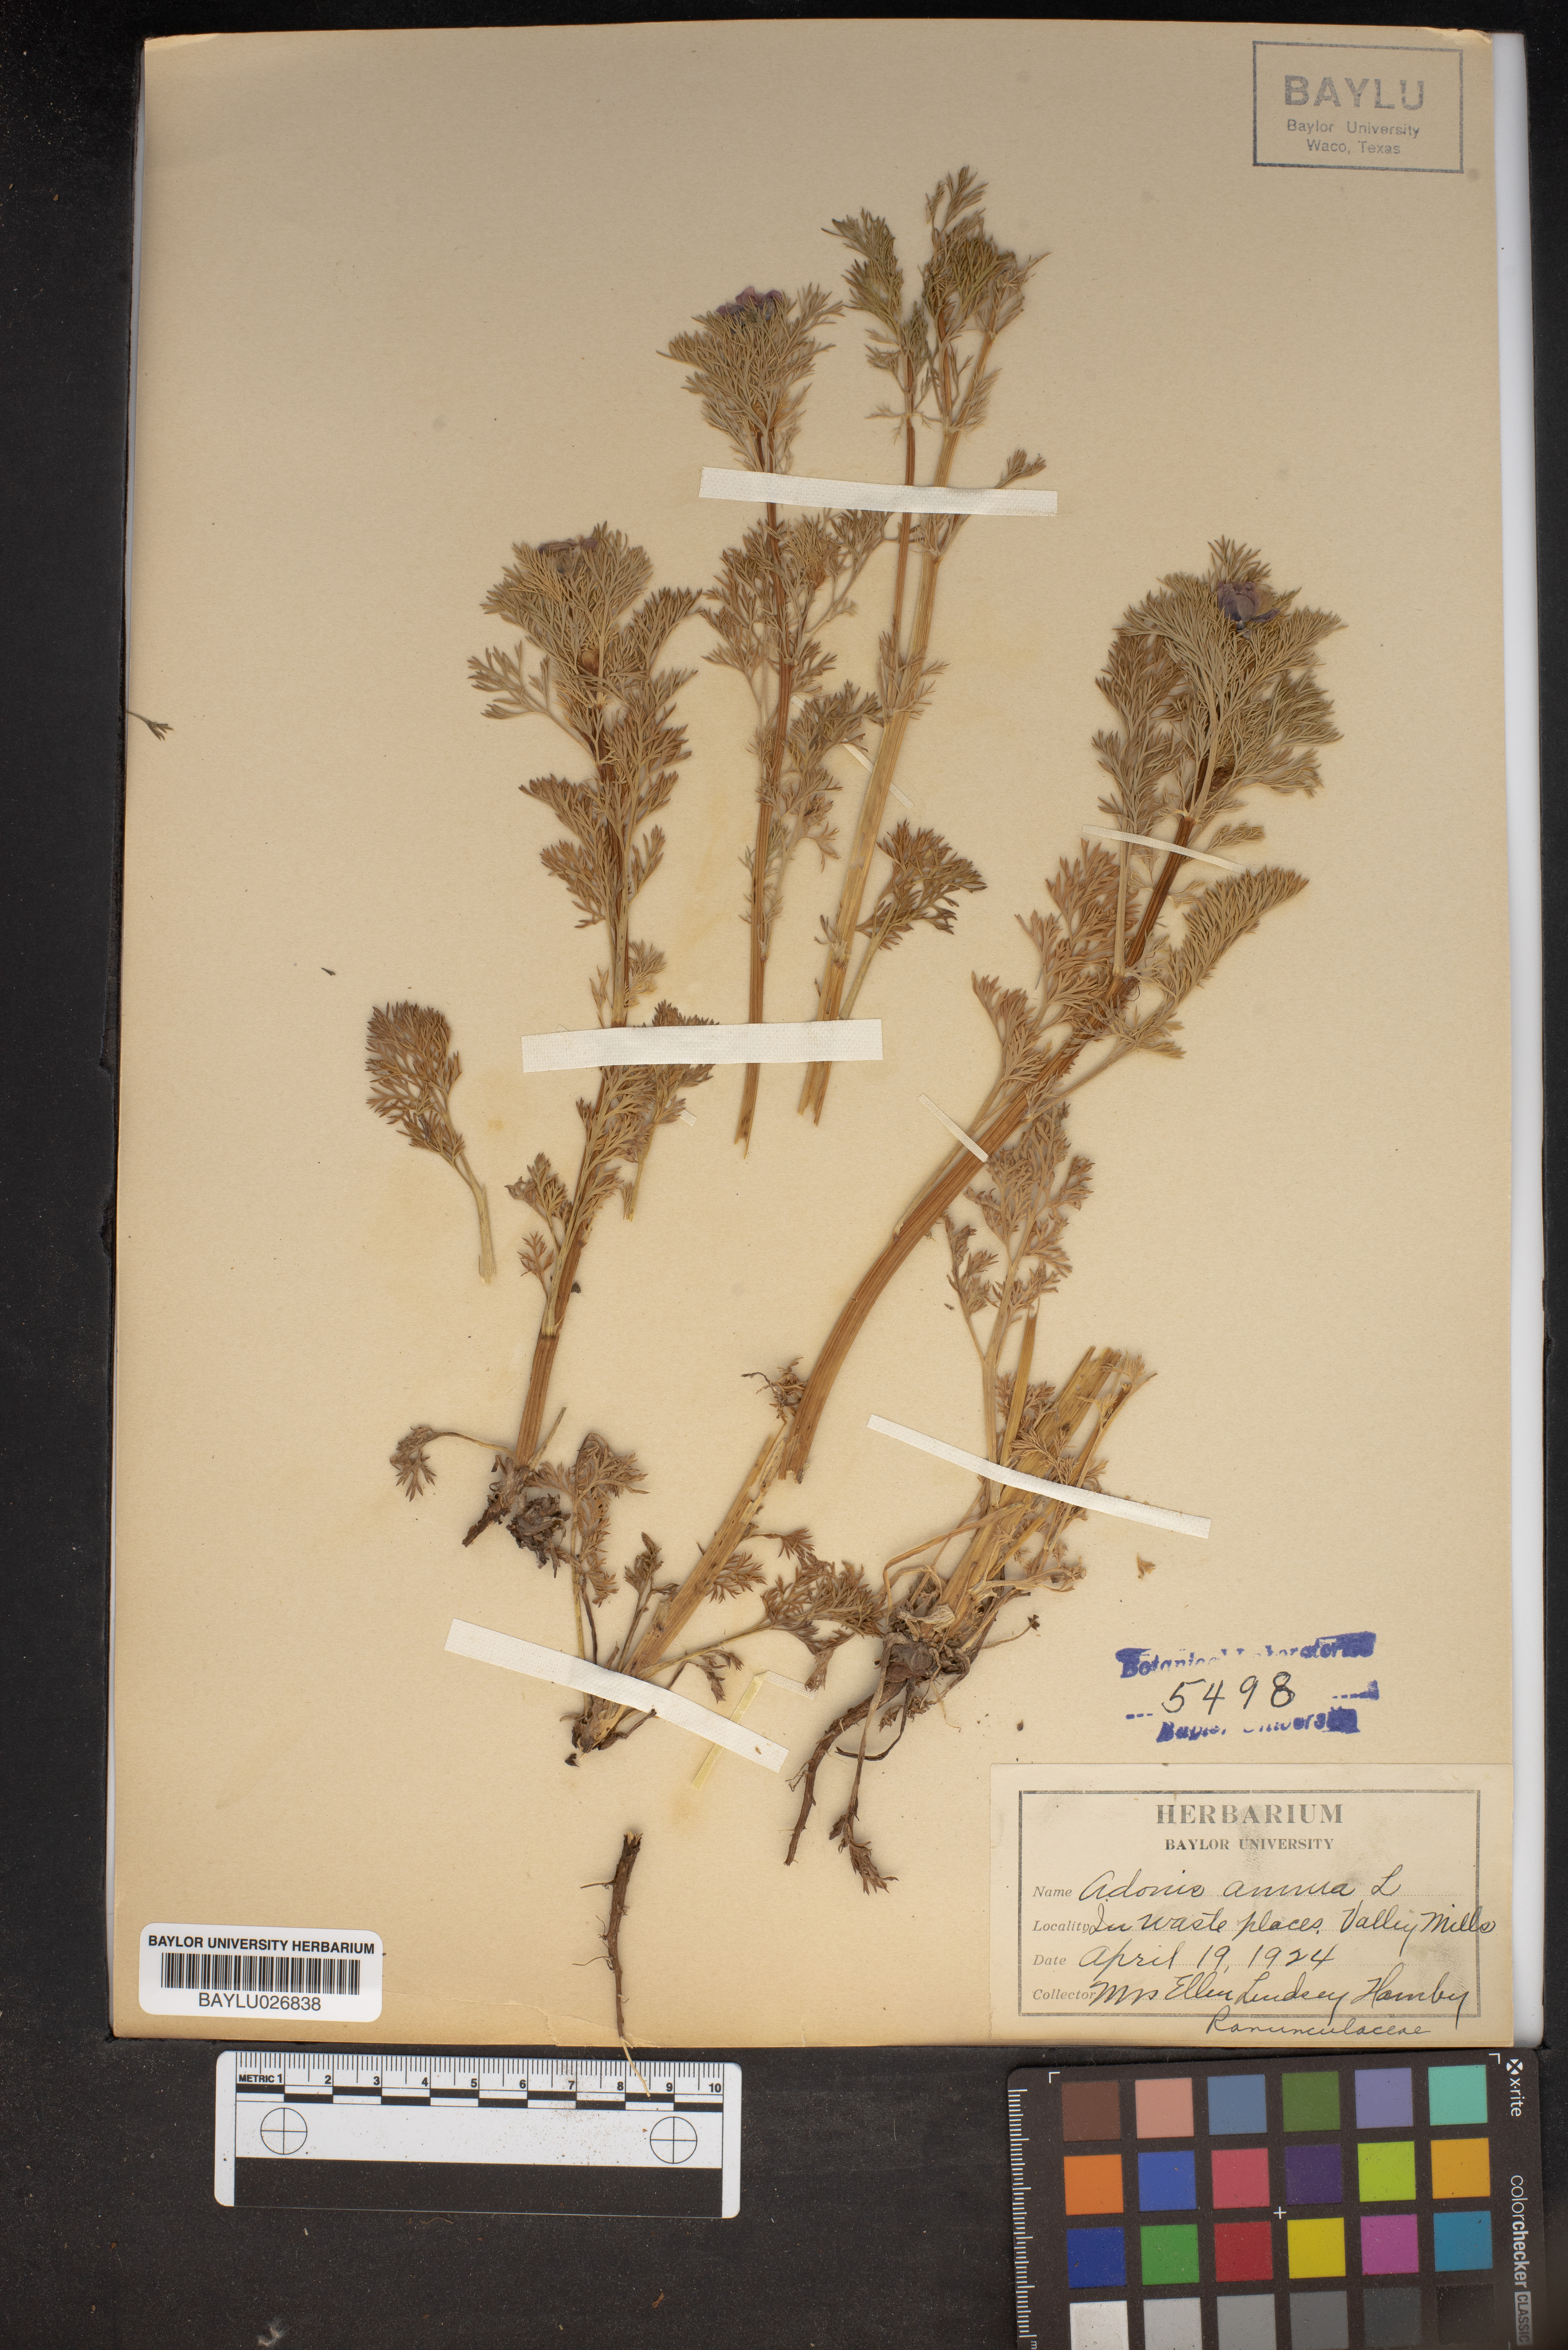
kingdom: Plantae
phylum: Tracheophyta
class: Magnoliopsida
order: Ranunculales
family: Ranunculaceae
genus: Adonis
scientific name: Adonis annua
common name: Pheasant's-eye
